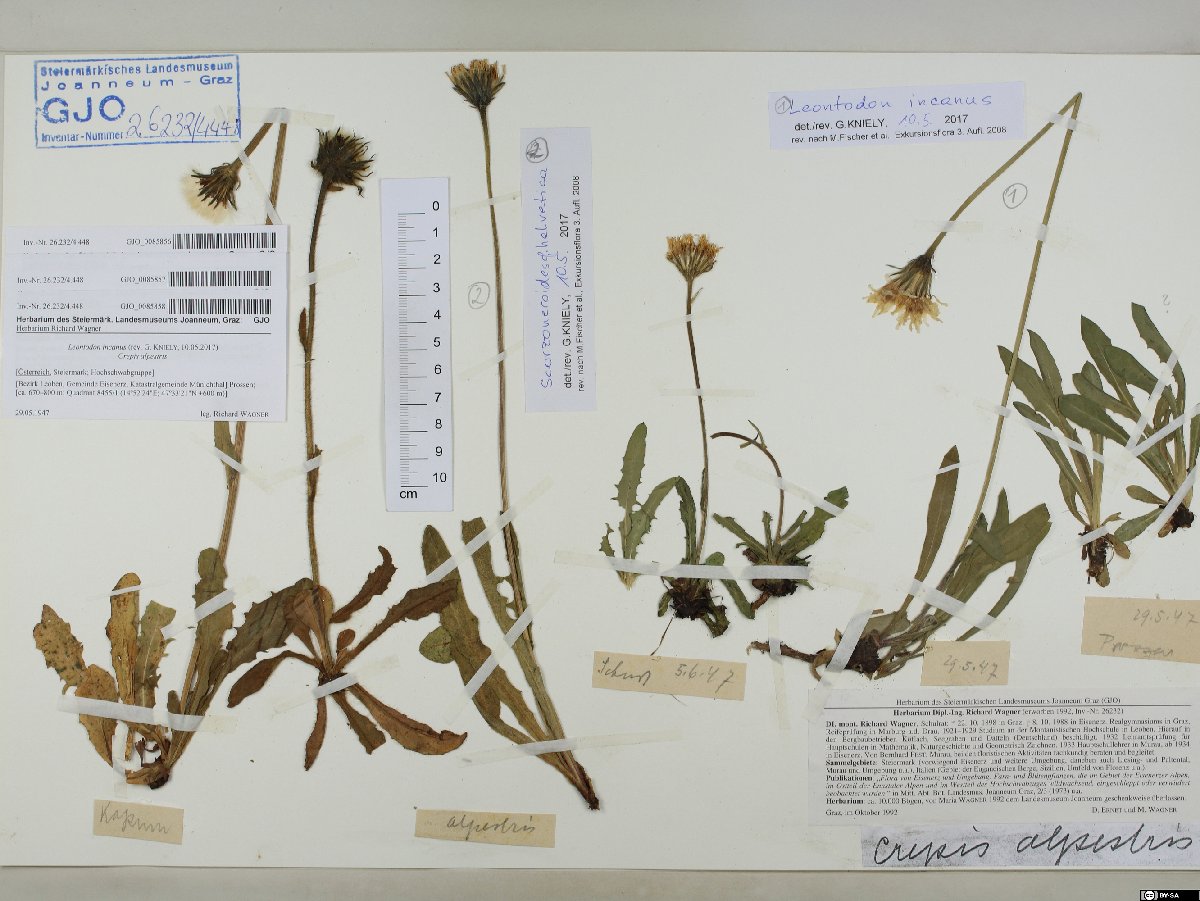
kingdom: Plantae
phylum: Tracheophyta
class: Magnoliopsida
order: Asterales
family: Asteraceae
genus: Crepis
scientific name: Crepis alpestris
